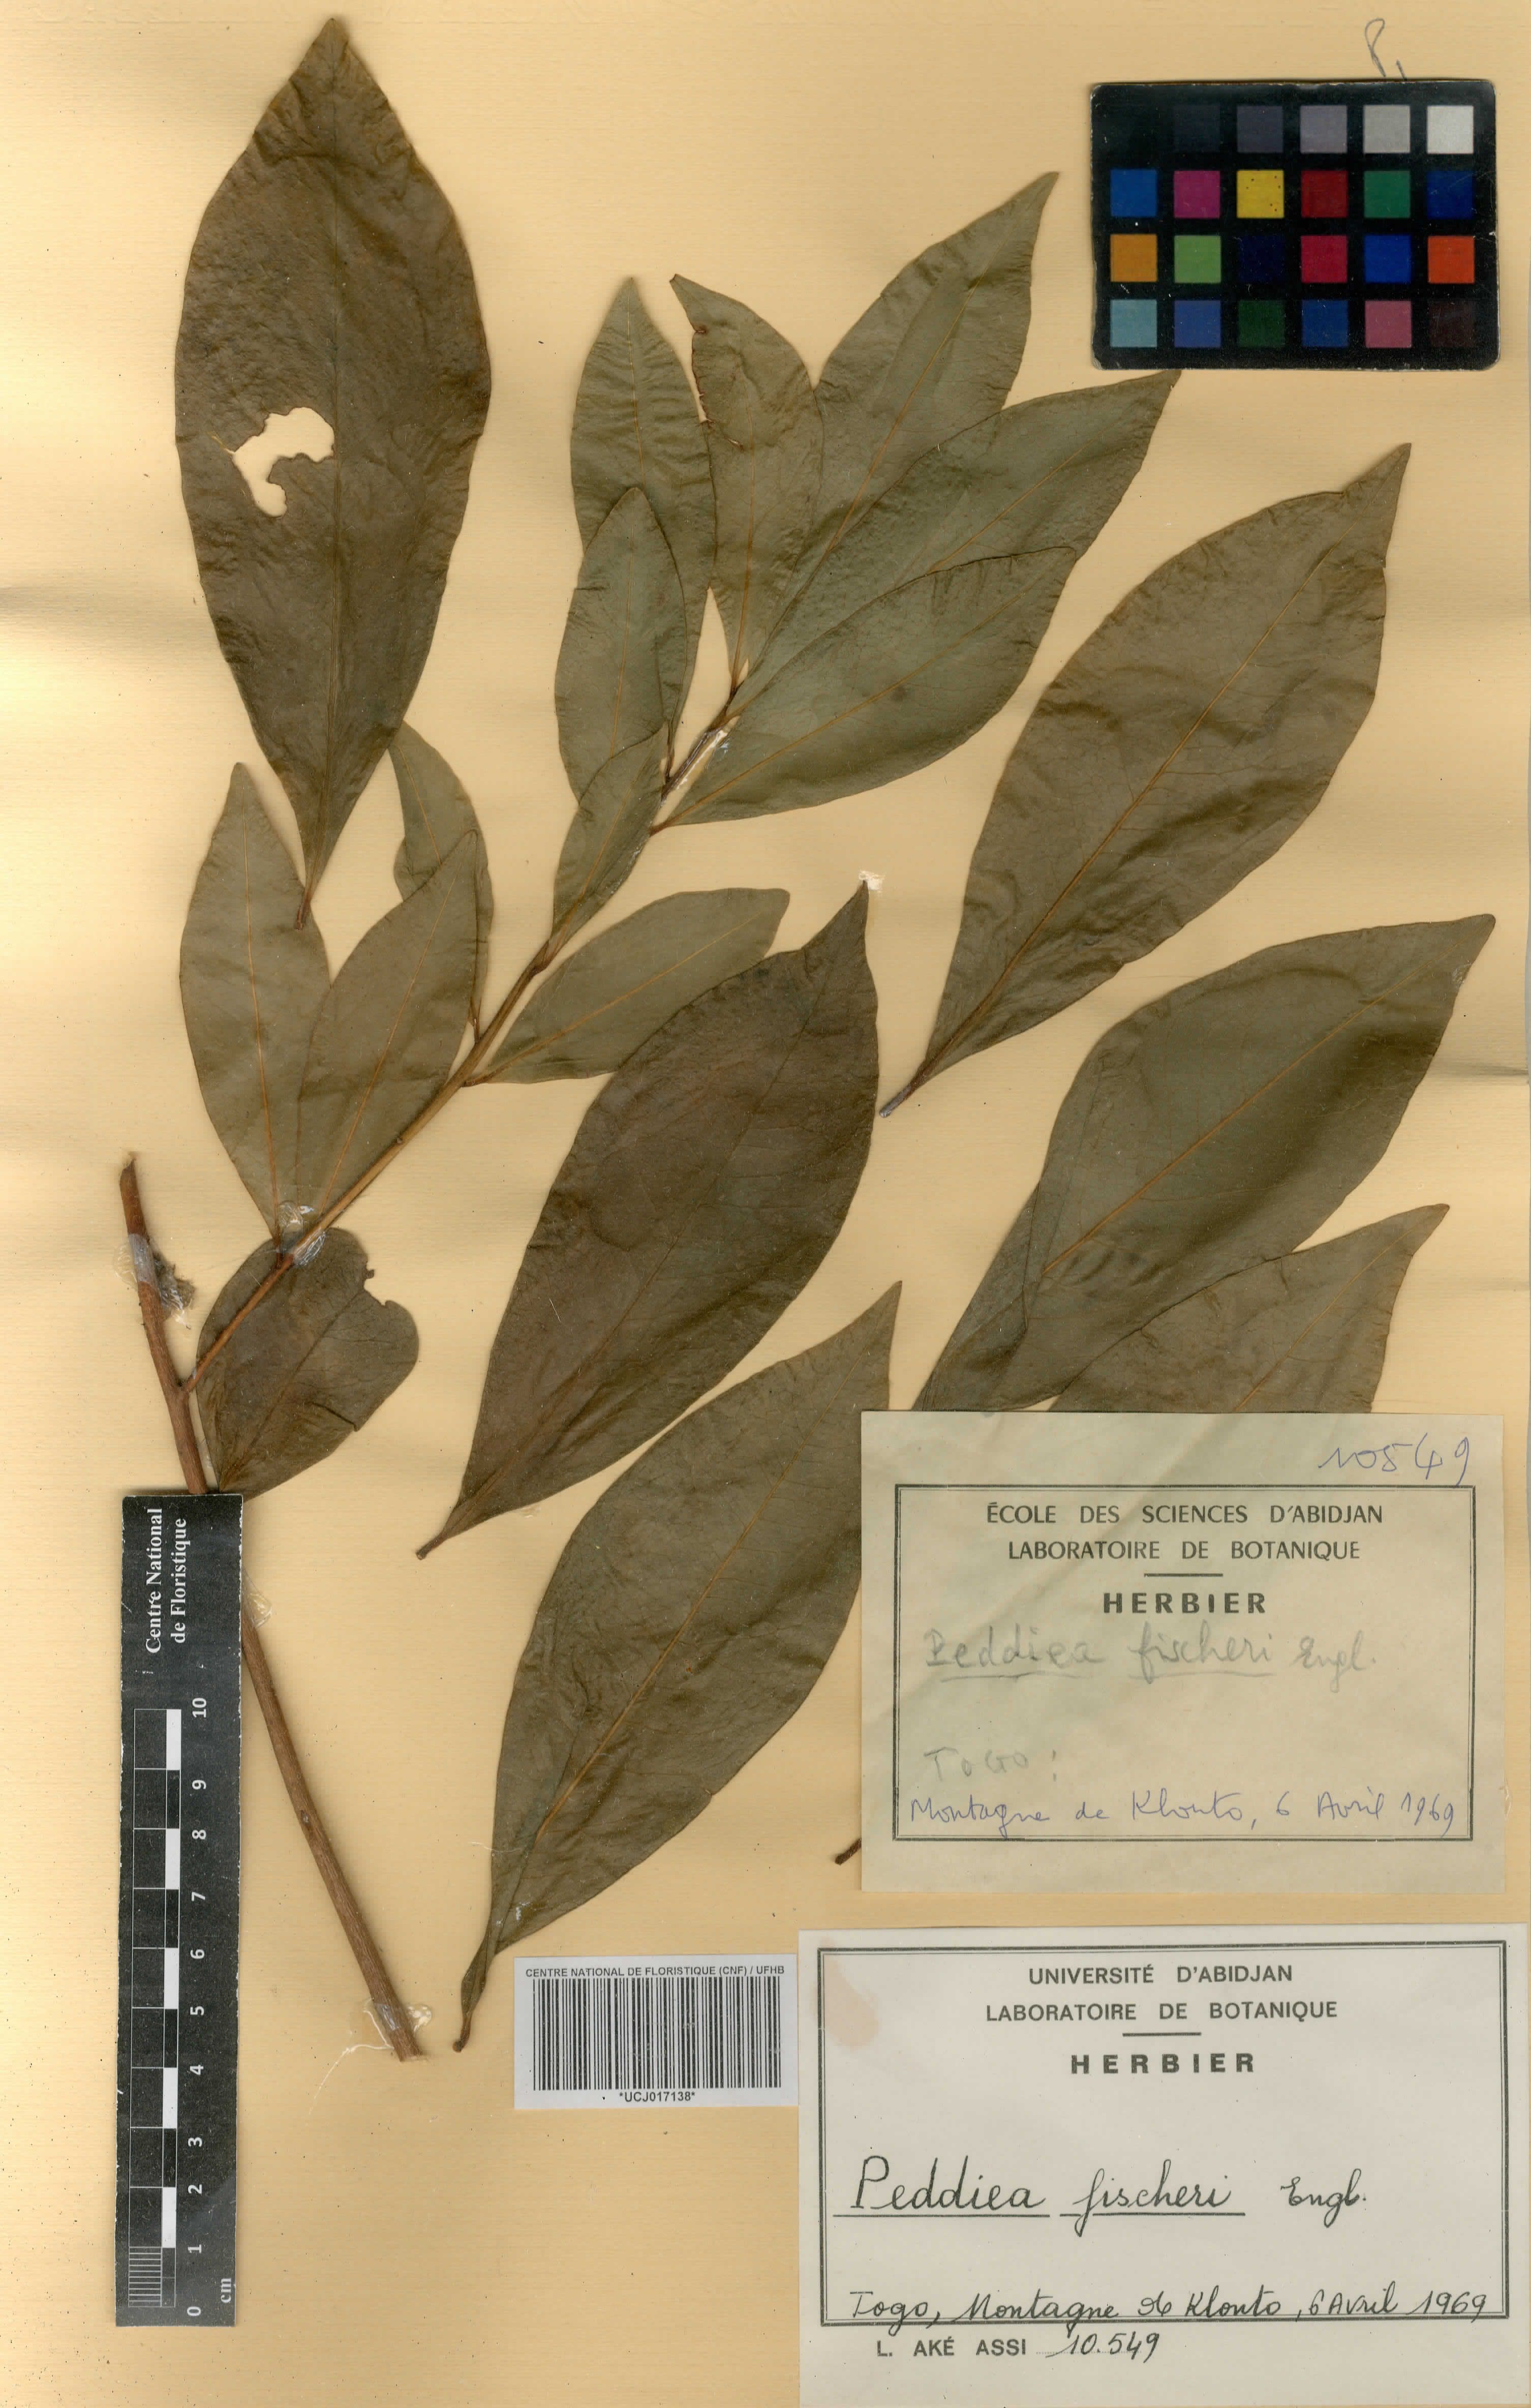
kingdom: Plantae
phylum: Tracheophyta
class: Magnoliopsida
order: Malvales
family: Thymelaeaceae
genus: Peddiea
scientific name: Peddiea fischeri
